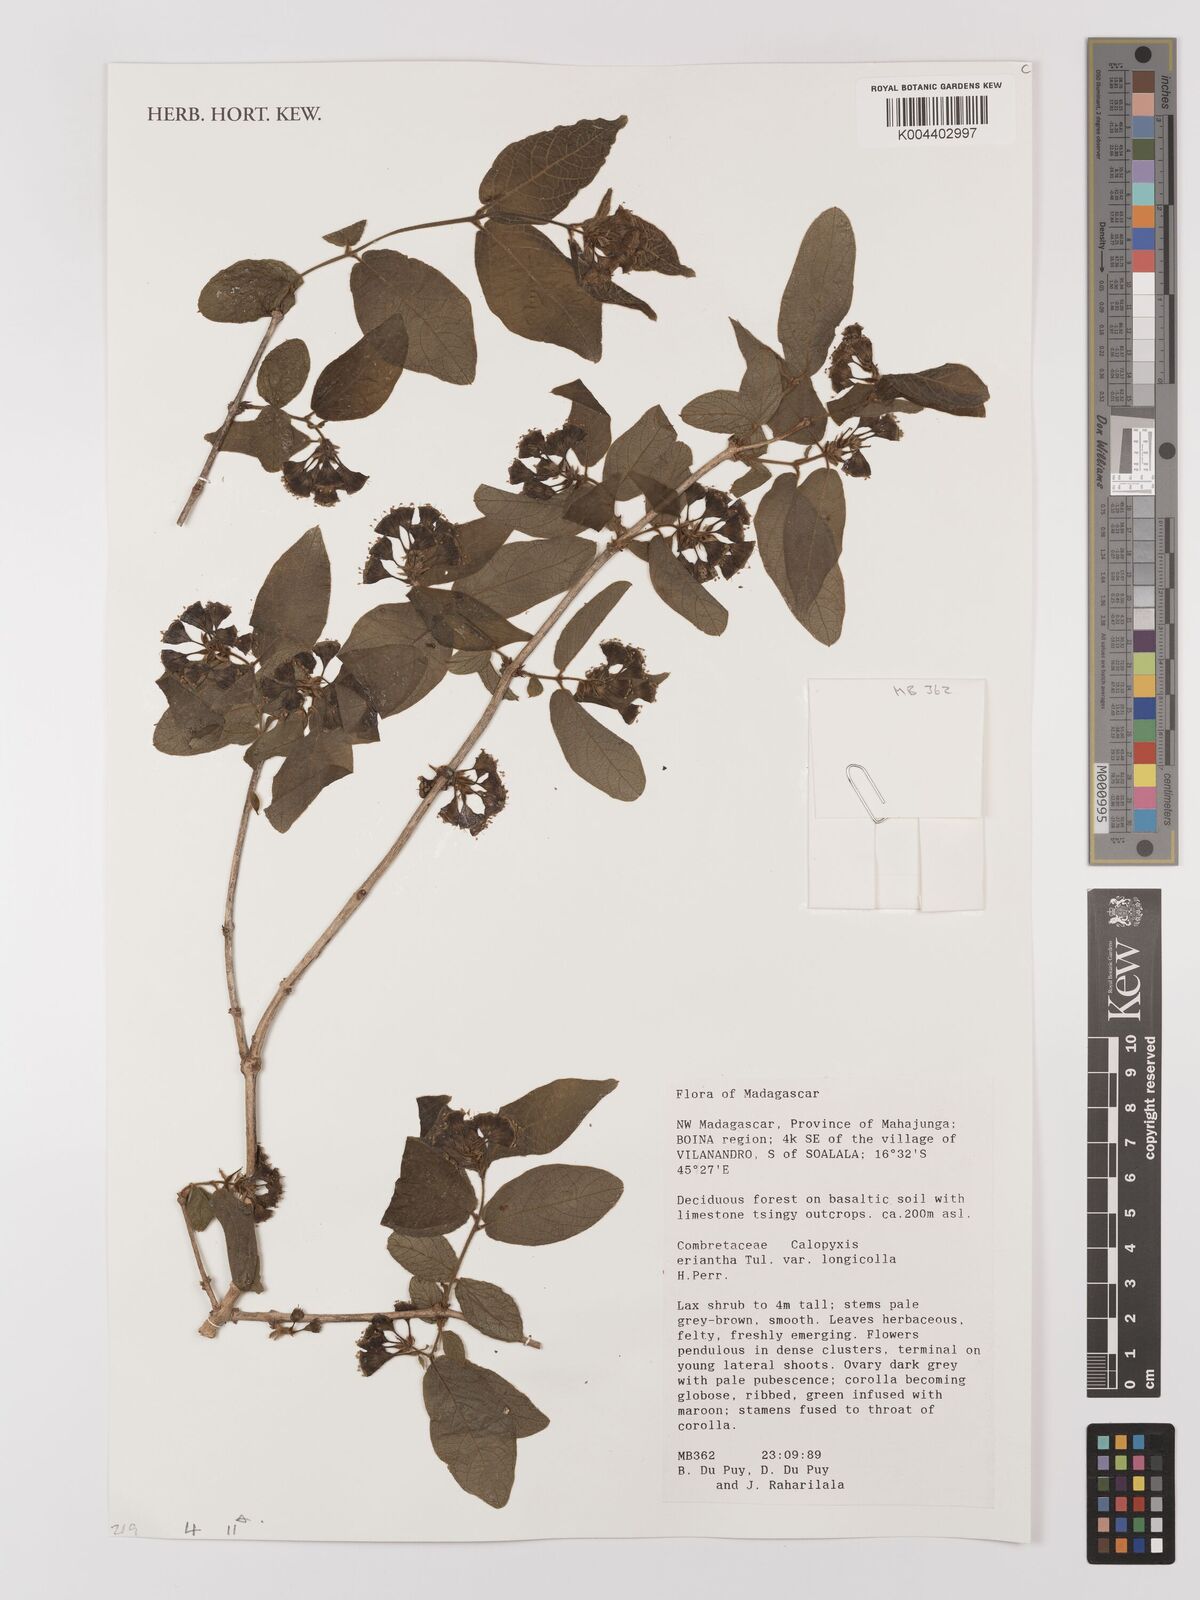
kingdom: Plantae
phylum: Tracheophyta
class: Magnoliopsida
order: Myrtales
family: Combretaceae
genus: Combretum
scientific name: Combretum longicollum
